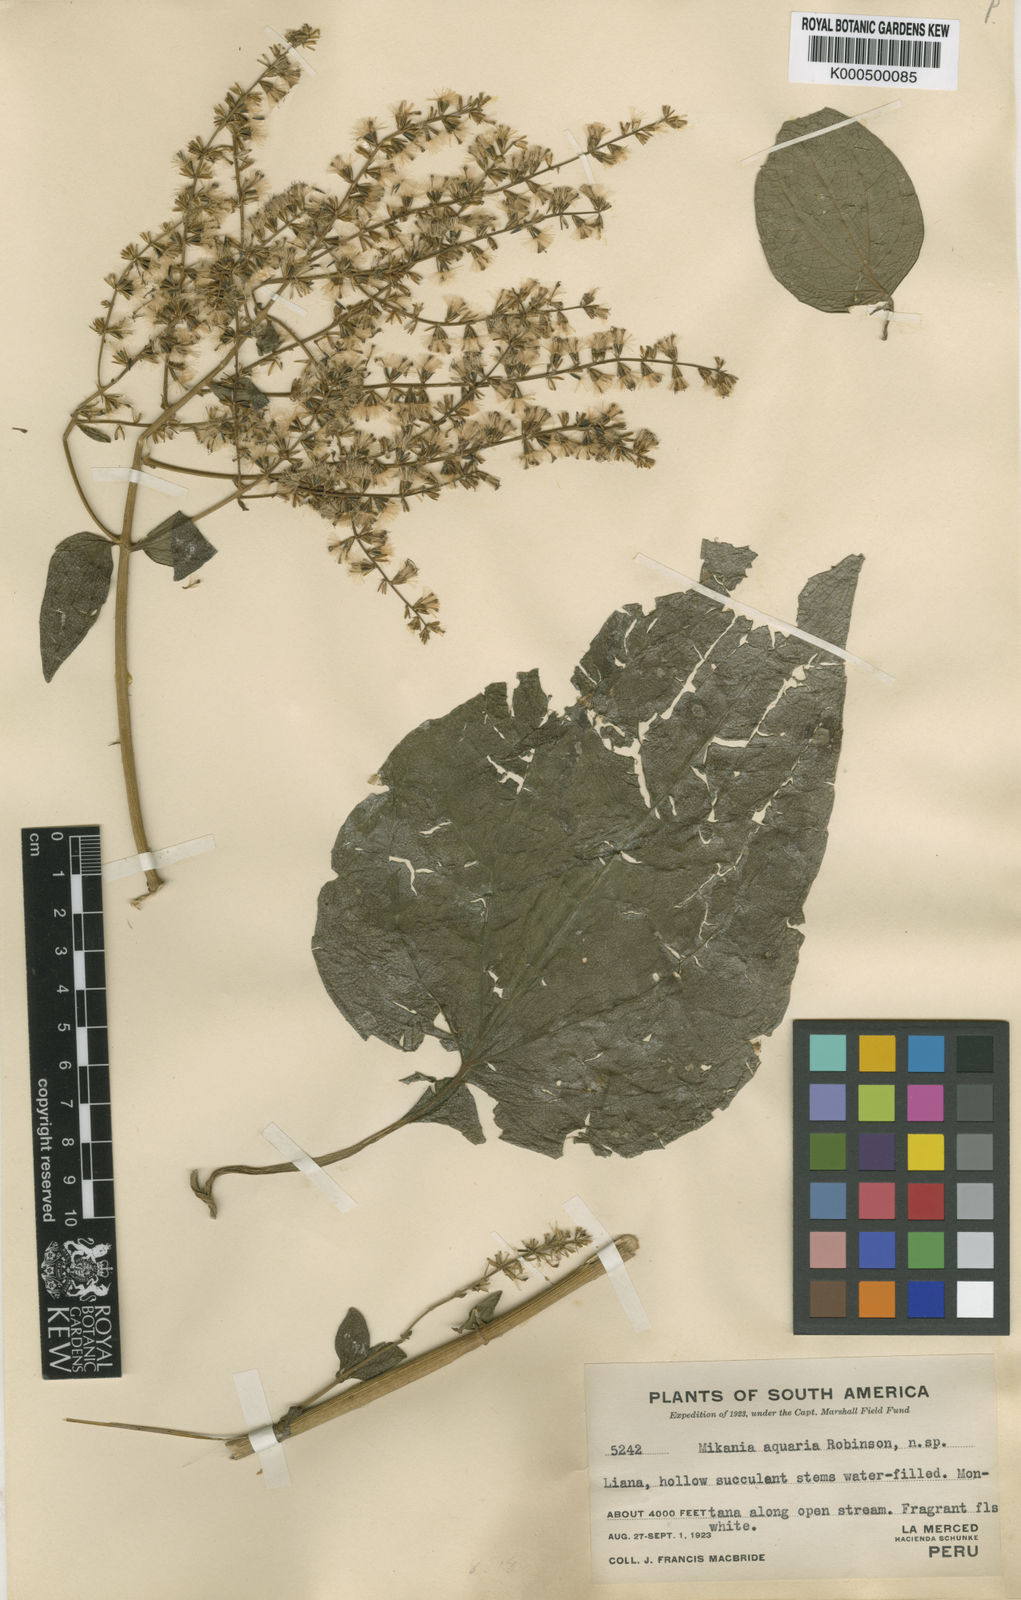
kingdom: Plantae
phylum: Tracheophyta
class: Magnoliopsida
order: Asterales
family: Asteraceae
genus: Mikania
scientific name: Mikania aquaria
